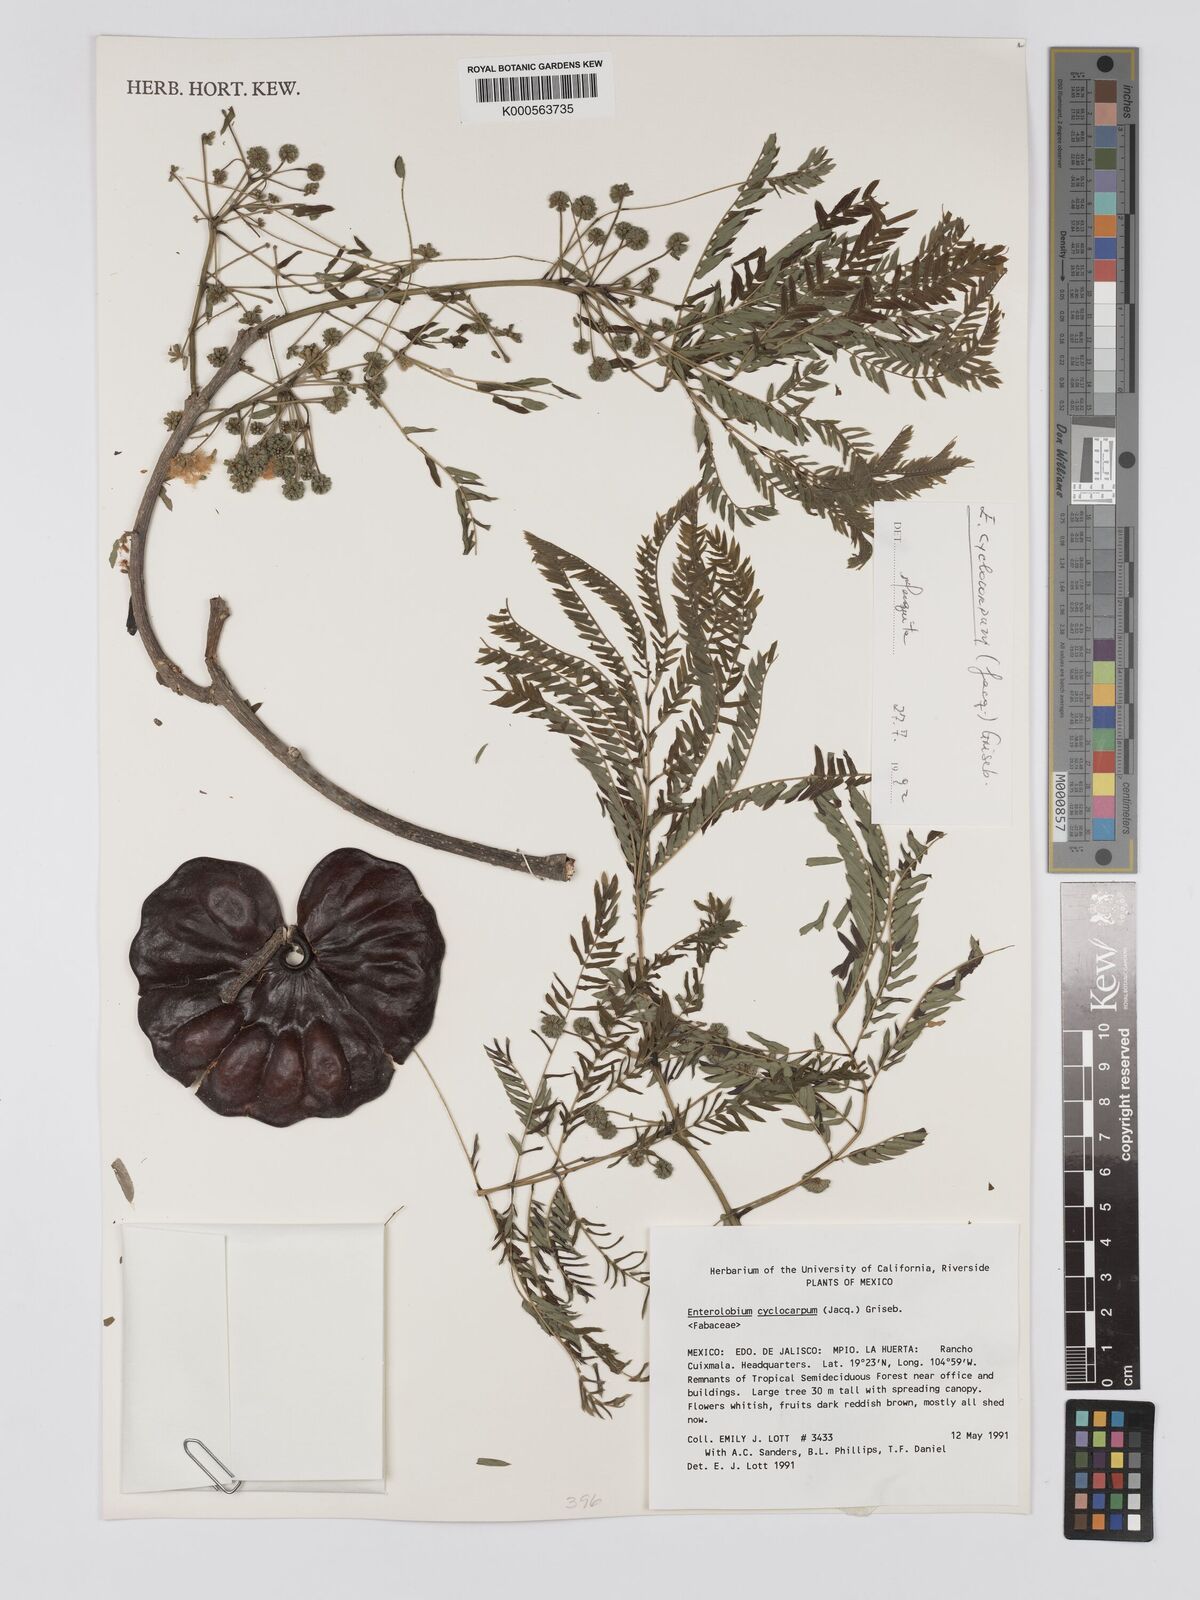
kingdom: Plantae
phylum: Tracheophyta
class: Magnoliopsida
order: Fabales
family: Fabaceae
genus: Enterolobium
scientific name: Enterolobium cyclocarpum
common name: Ear tree
